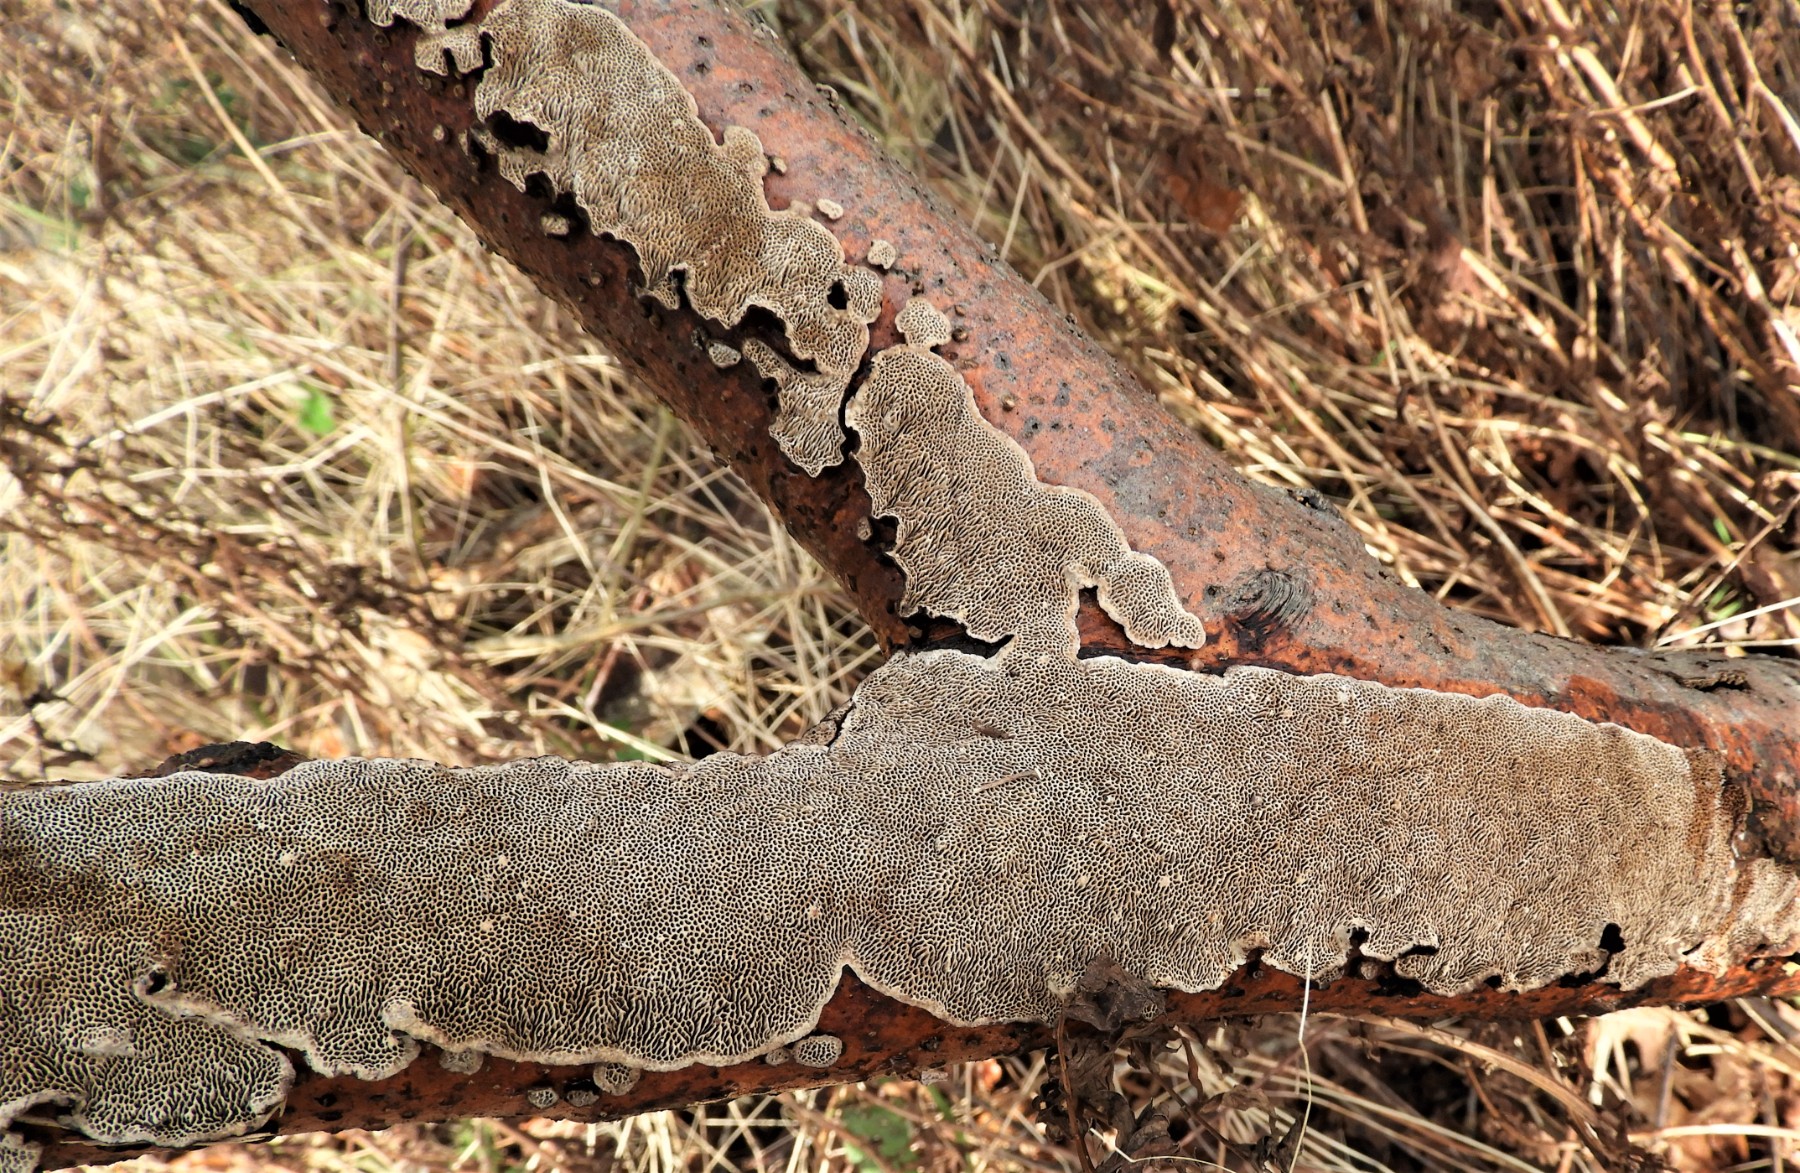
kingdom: Fungi
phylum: Basidiomycota
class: Agaricomycetes
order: Polyporales
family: Polyporaceae
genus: Podofomes
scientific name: Podofomes mollis
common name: blød begporesvamp
